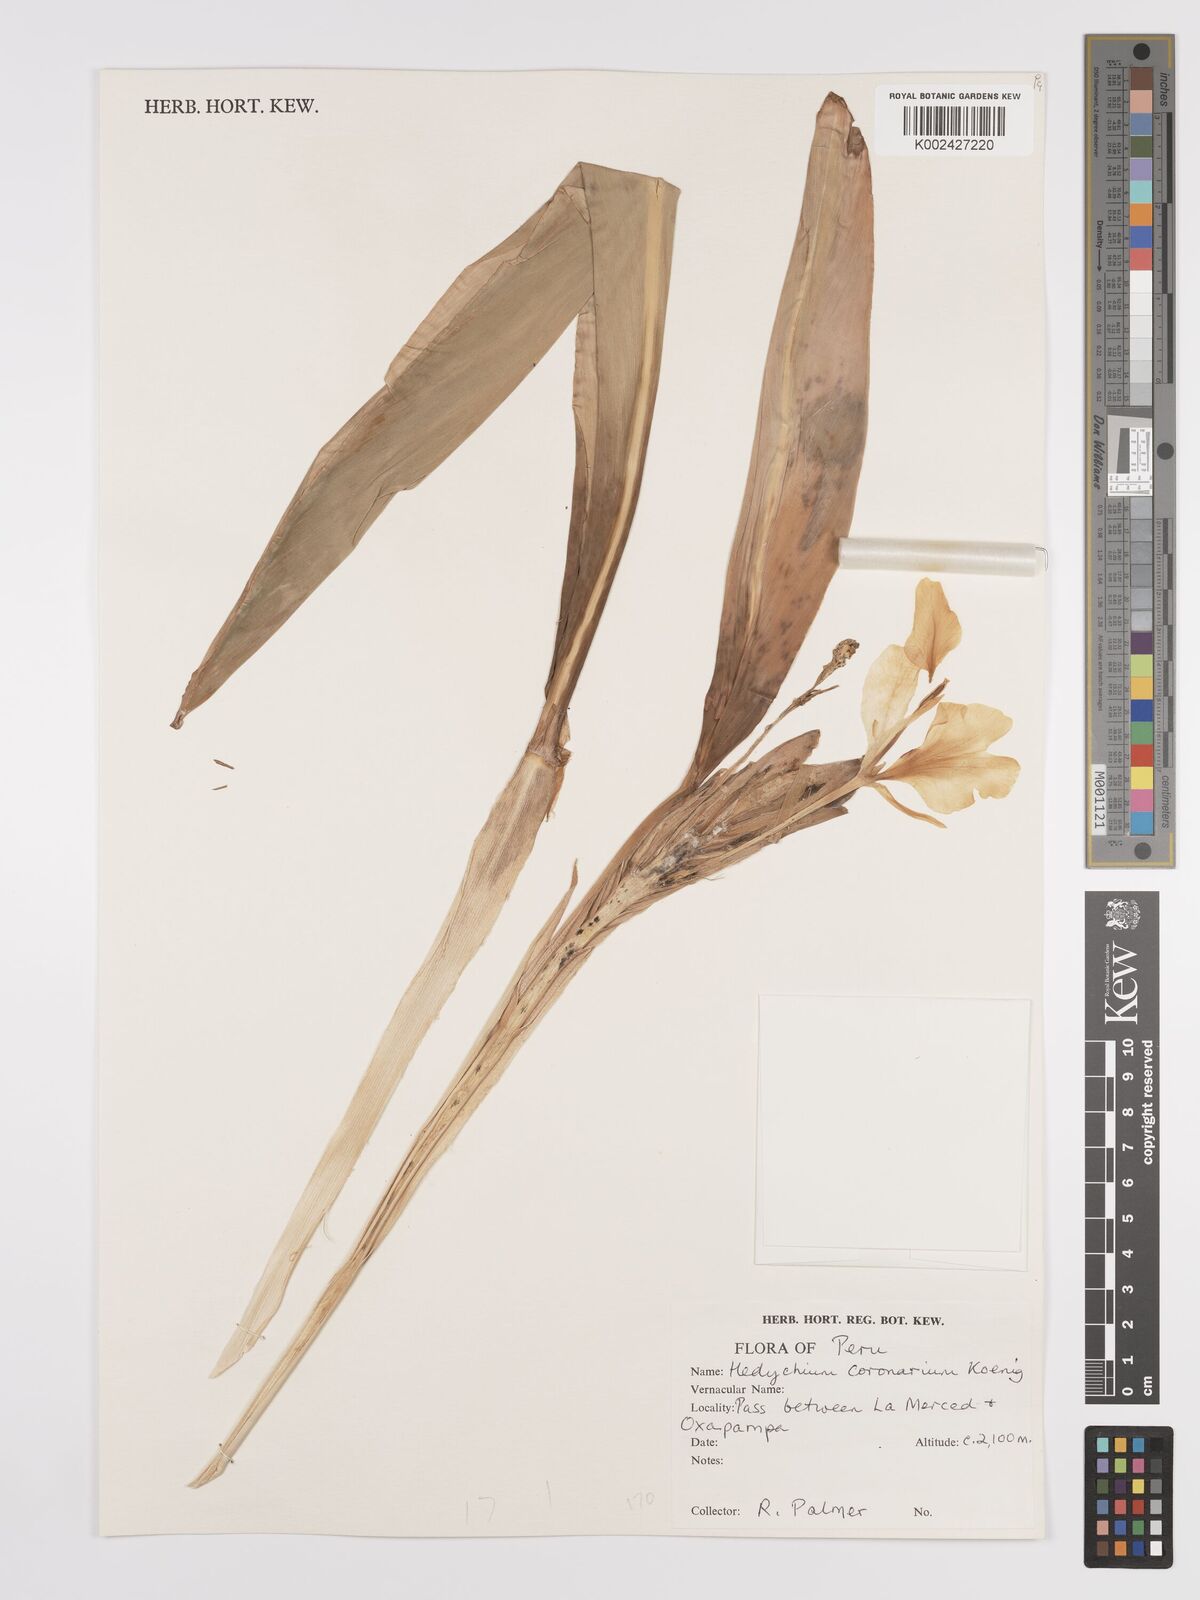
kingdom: Plantae
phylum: Tracheophyta
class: Liliopsida
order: Zingiberales
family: Zingiberaceae
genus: Hedychium
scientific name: Hedychium coronarium
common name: White garland-lily
